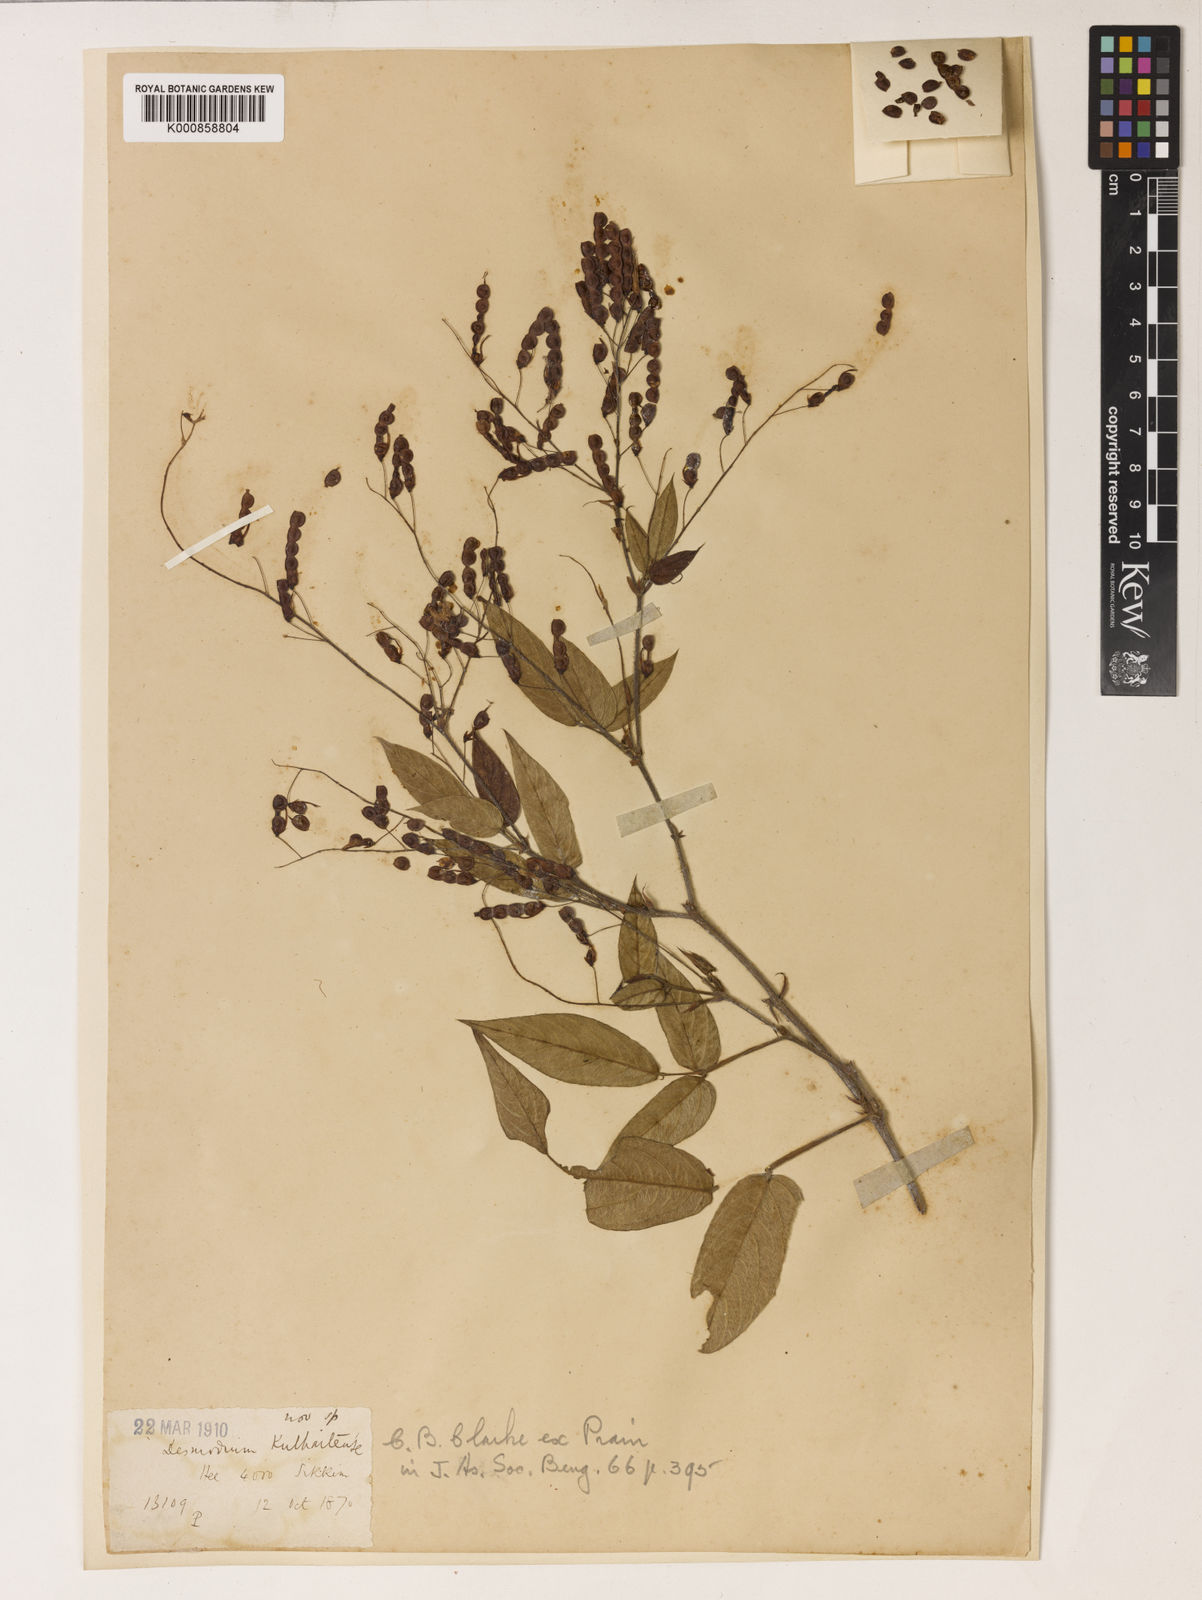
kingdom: Plantae
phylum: Tracheophyta
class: Magnoliopsida
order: Fabales
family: Fabaceae
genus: Ototropis
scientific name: Ototropis kulhaitensis
